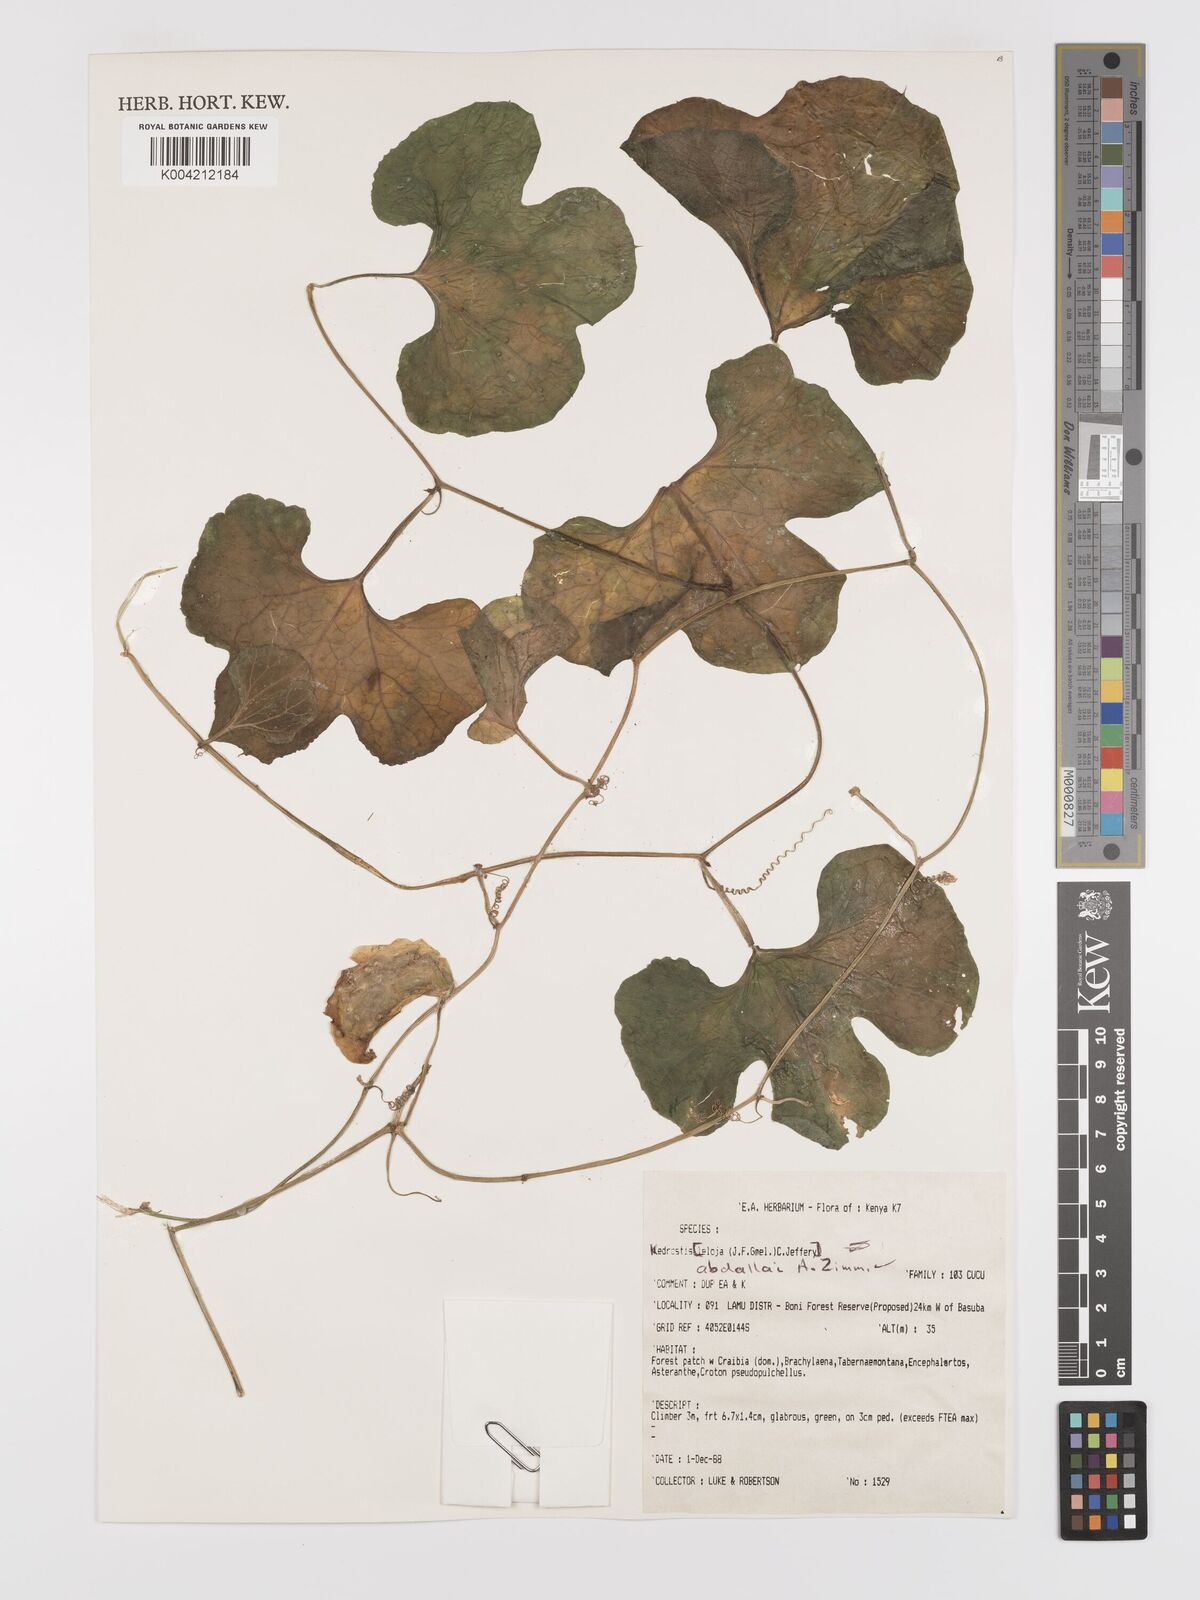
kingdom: Plantae
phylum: Tracheophyta
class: Magnoliopsida
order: Cucurbitales
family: Cucurbitaceae
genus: Kedrostis
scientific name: Kedrostis abdallae
